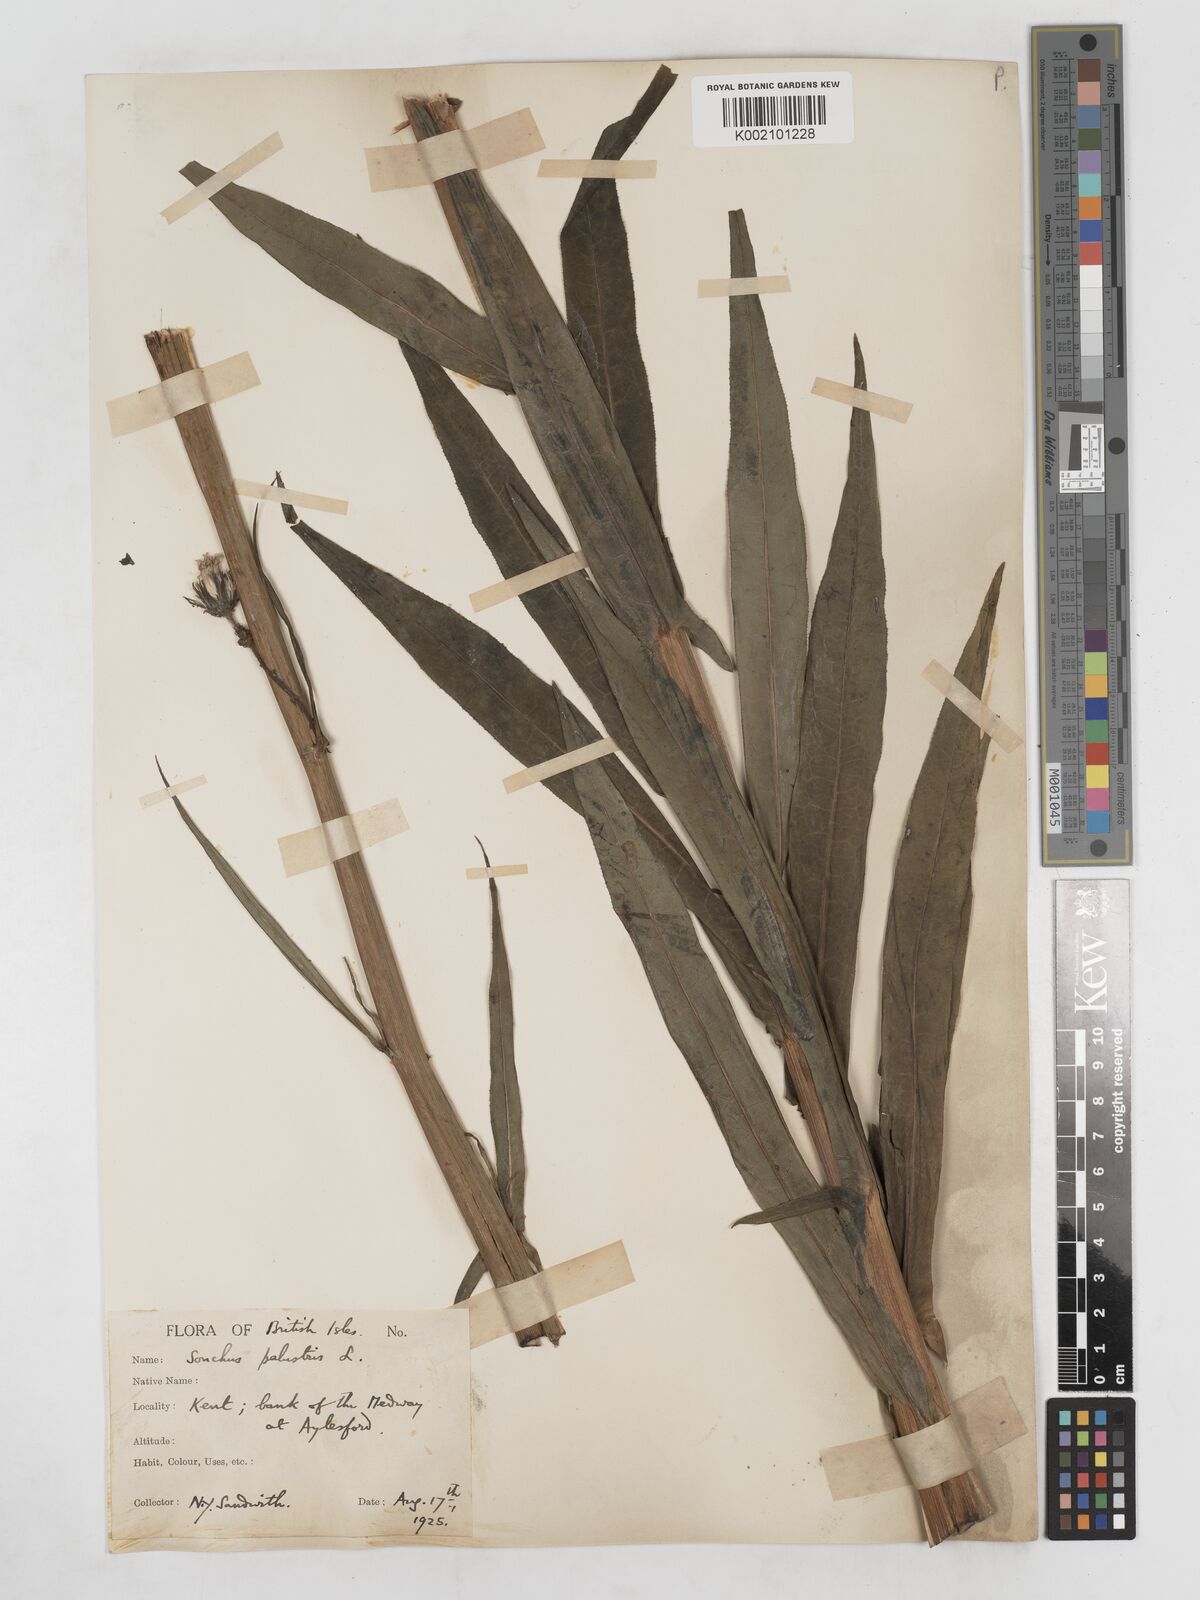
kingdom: Plantae
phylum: Tracheophyta
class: Magnoliopsida
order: Asterales
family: Asteraceae
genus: Sonchus
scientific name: Sonchus palustris
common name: Marsh sow-thistle
